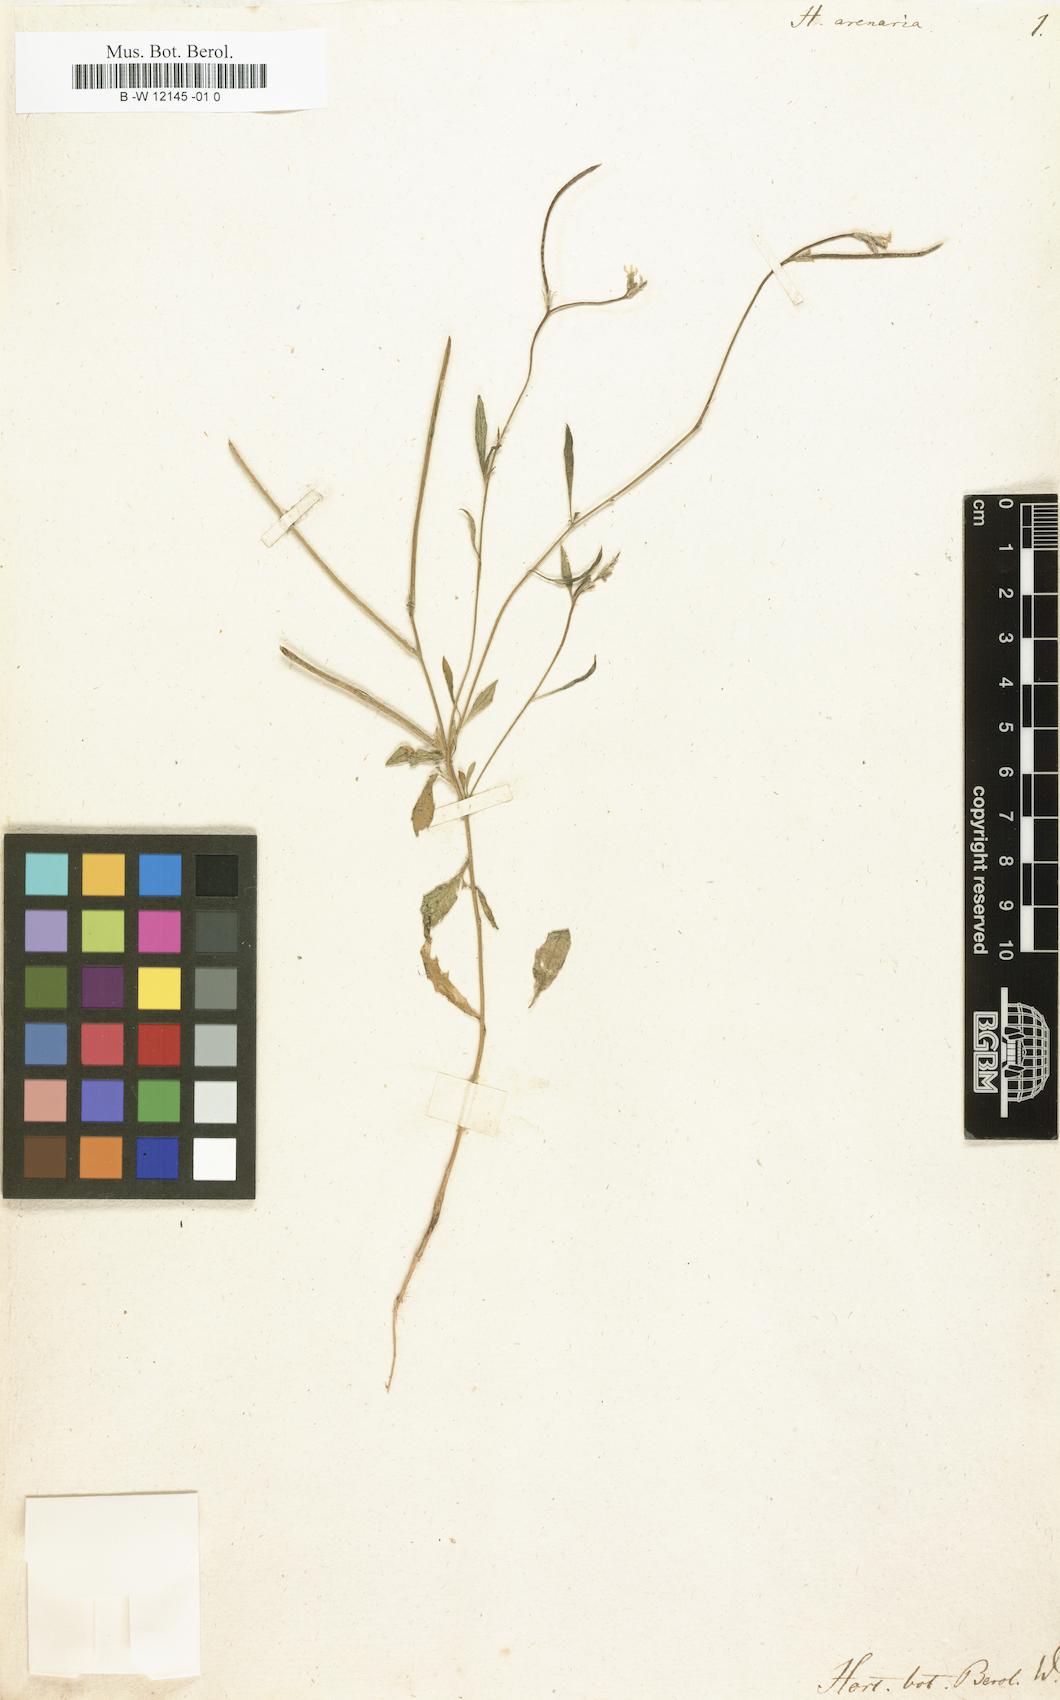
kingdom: Plantae
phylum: Tracheophyta
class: Magnoliopsida
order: Brassicales
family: Brassicaceae
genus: Marcuskochia
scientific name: Marcuskochia arenaria
